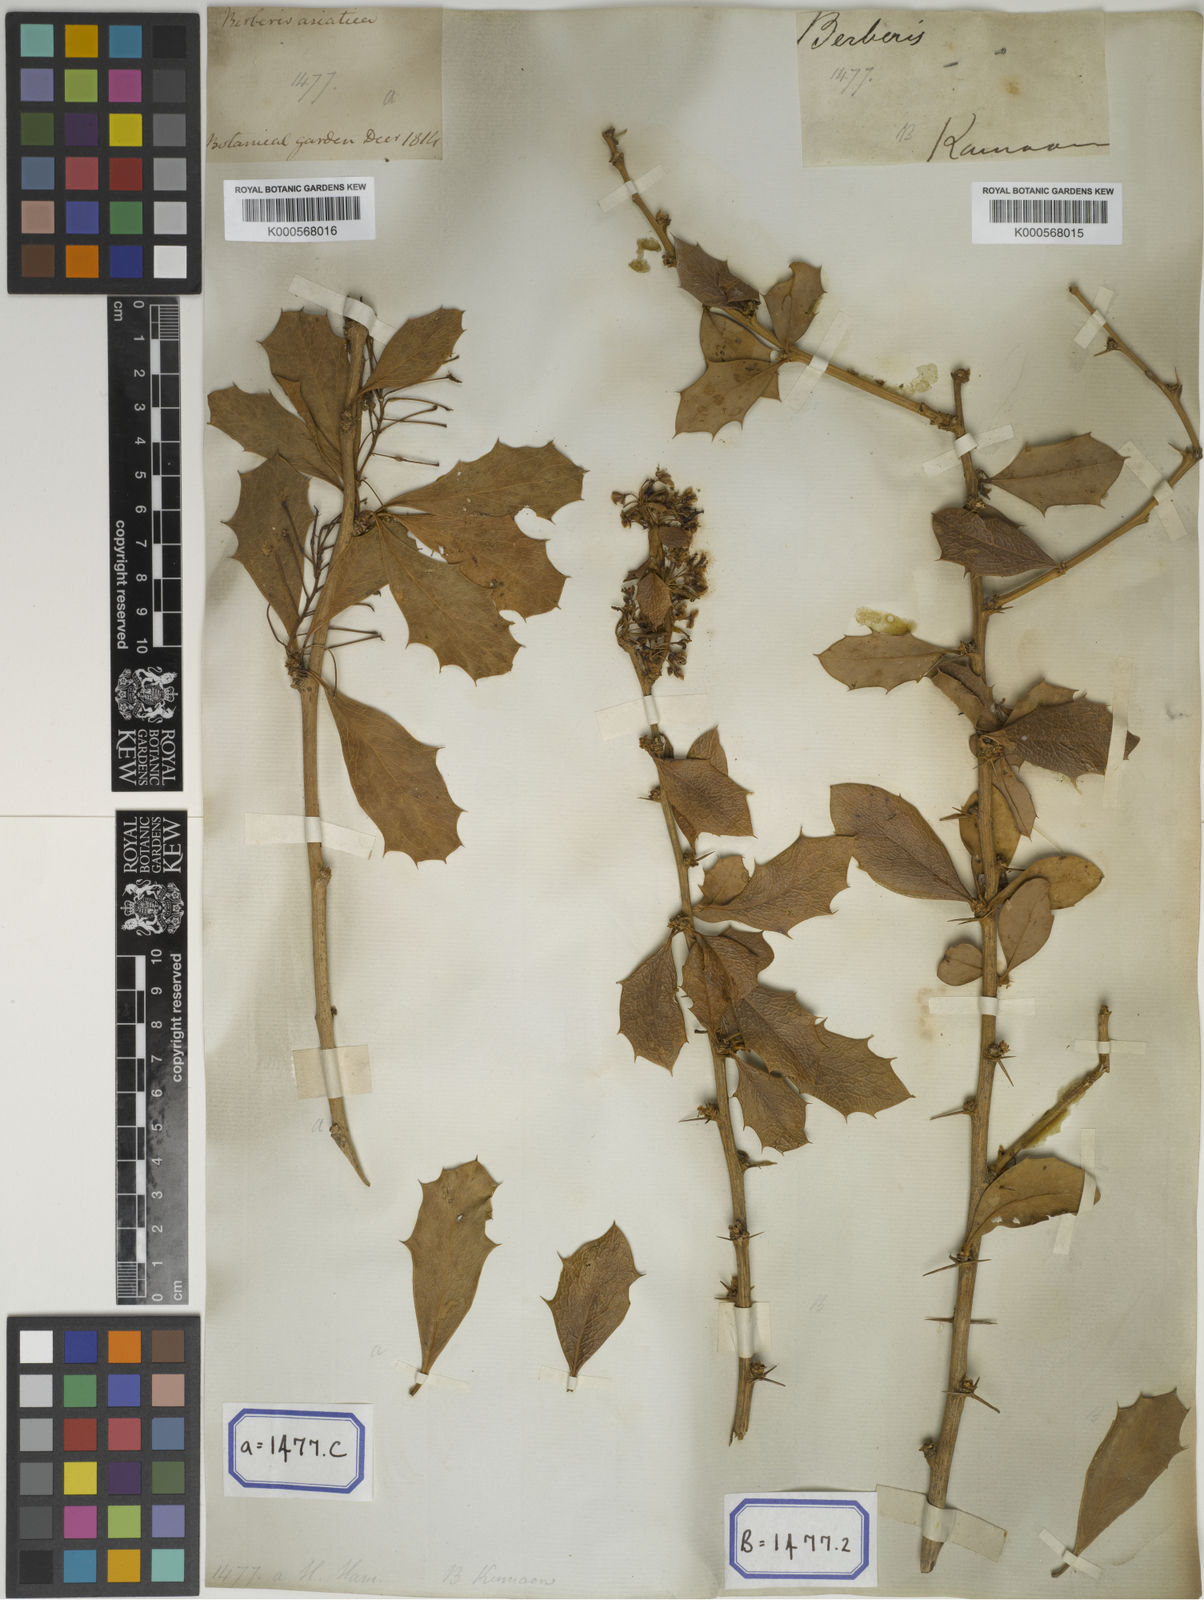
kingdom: Plantae
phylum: Tracheophyta
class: Magnoliopsida
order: Ranunculales
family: Berberidaceae
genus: Berberis
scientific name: Berberis asiatica
